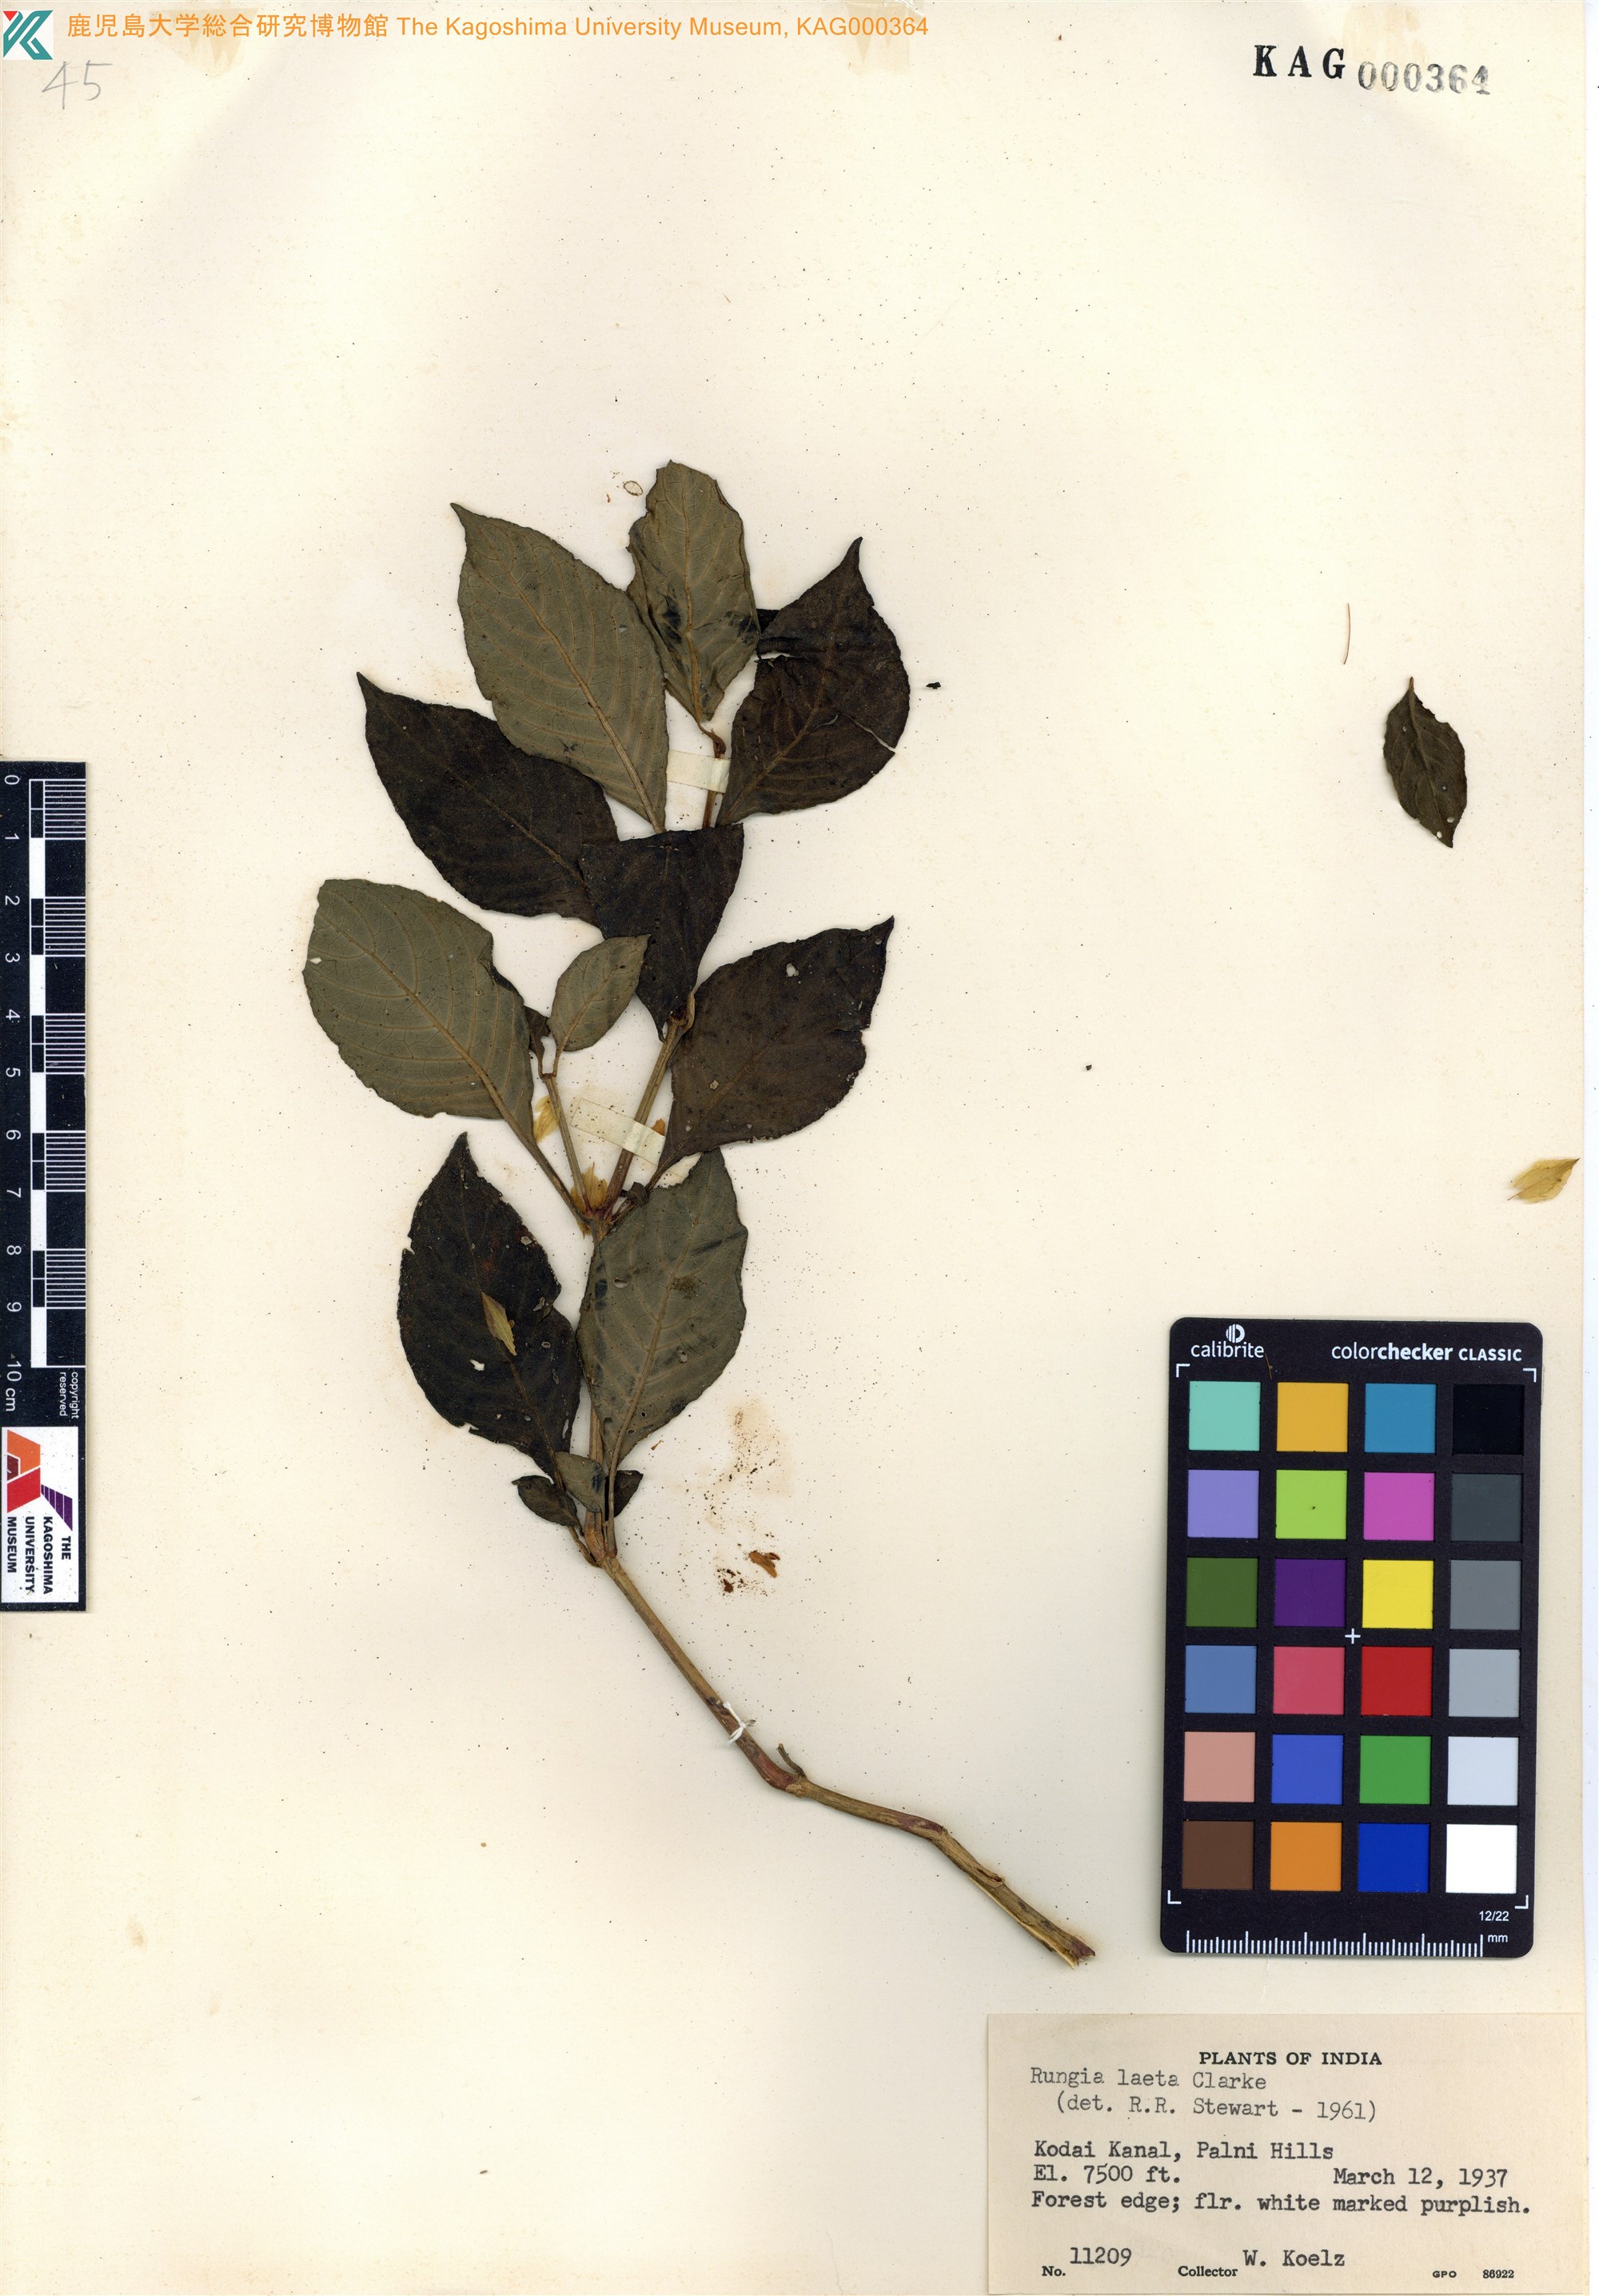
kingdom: Plantae
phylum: Tracheophyta
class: Magnoliopsida
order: Lamiales
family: Acanthaceae
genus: Rungia
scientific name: Rungia laeta
